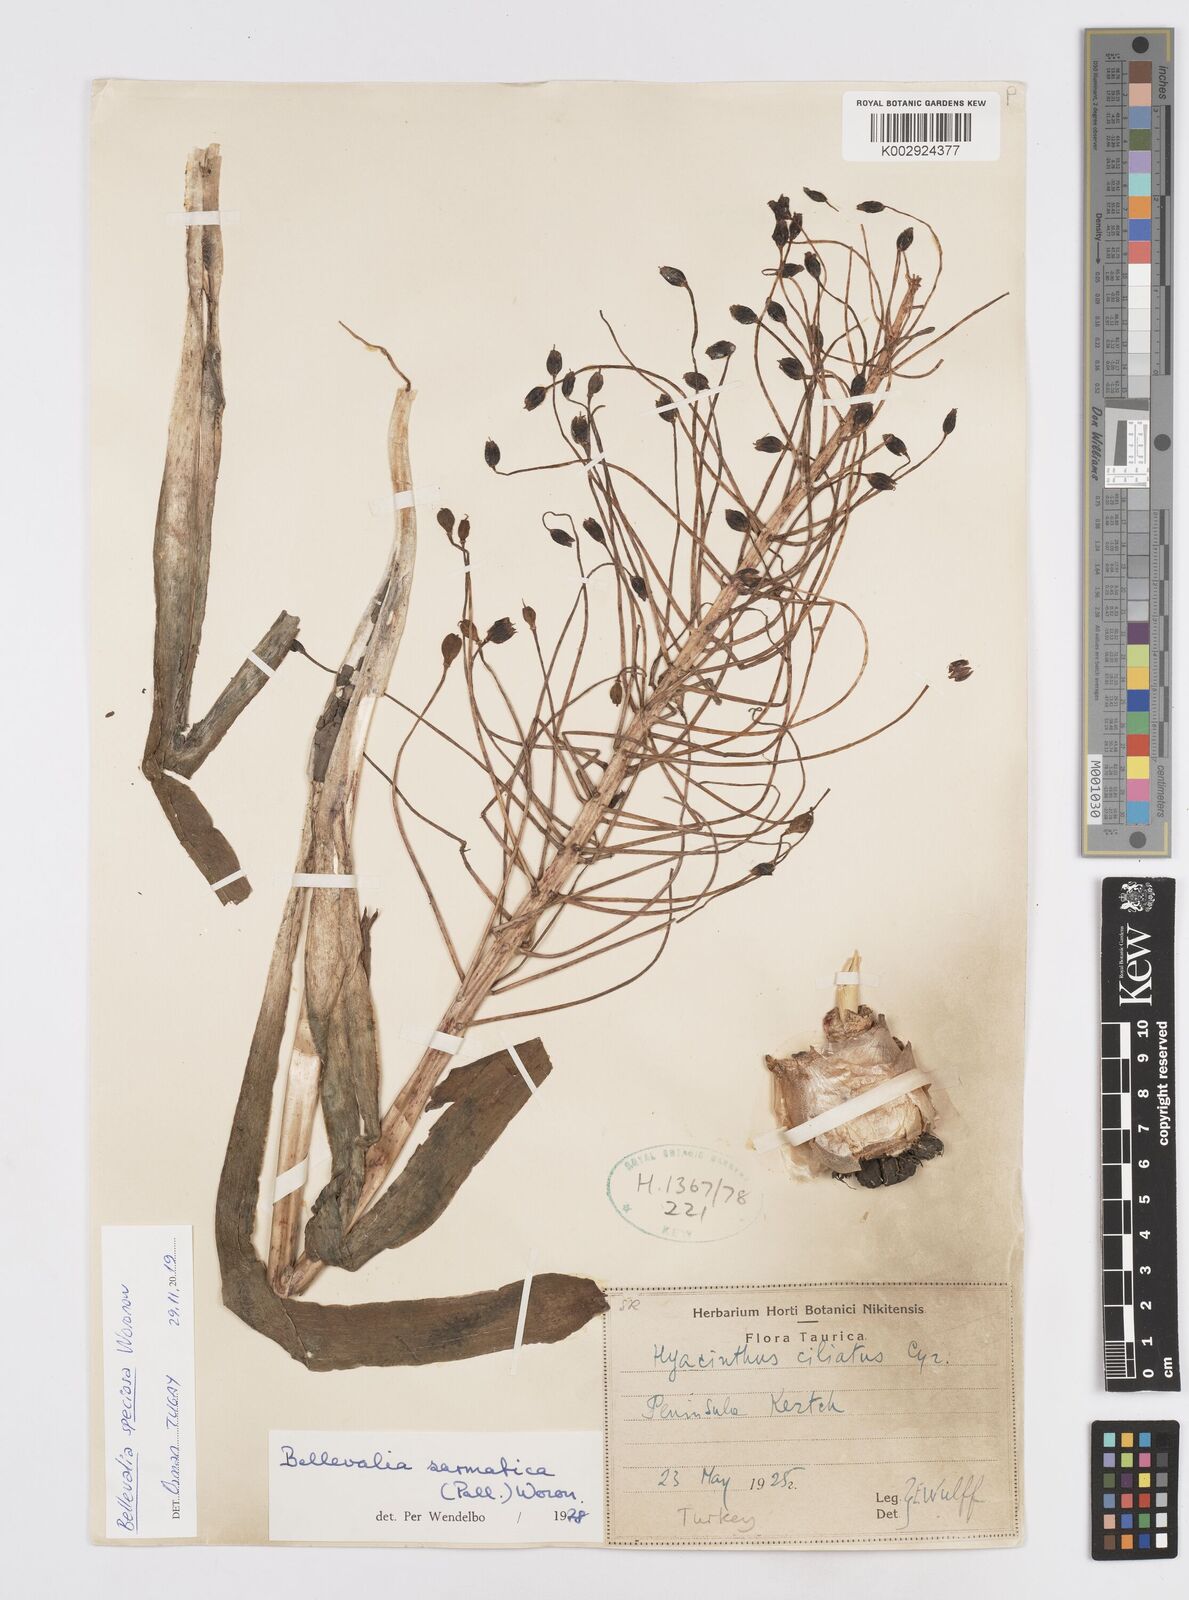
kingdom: Plantae
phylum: Tracheophyta
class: Liliopsida
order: Asparagales
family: Asparagaceae
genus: Bellevalia
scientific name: Bellevalia speciosa
